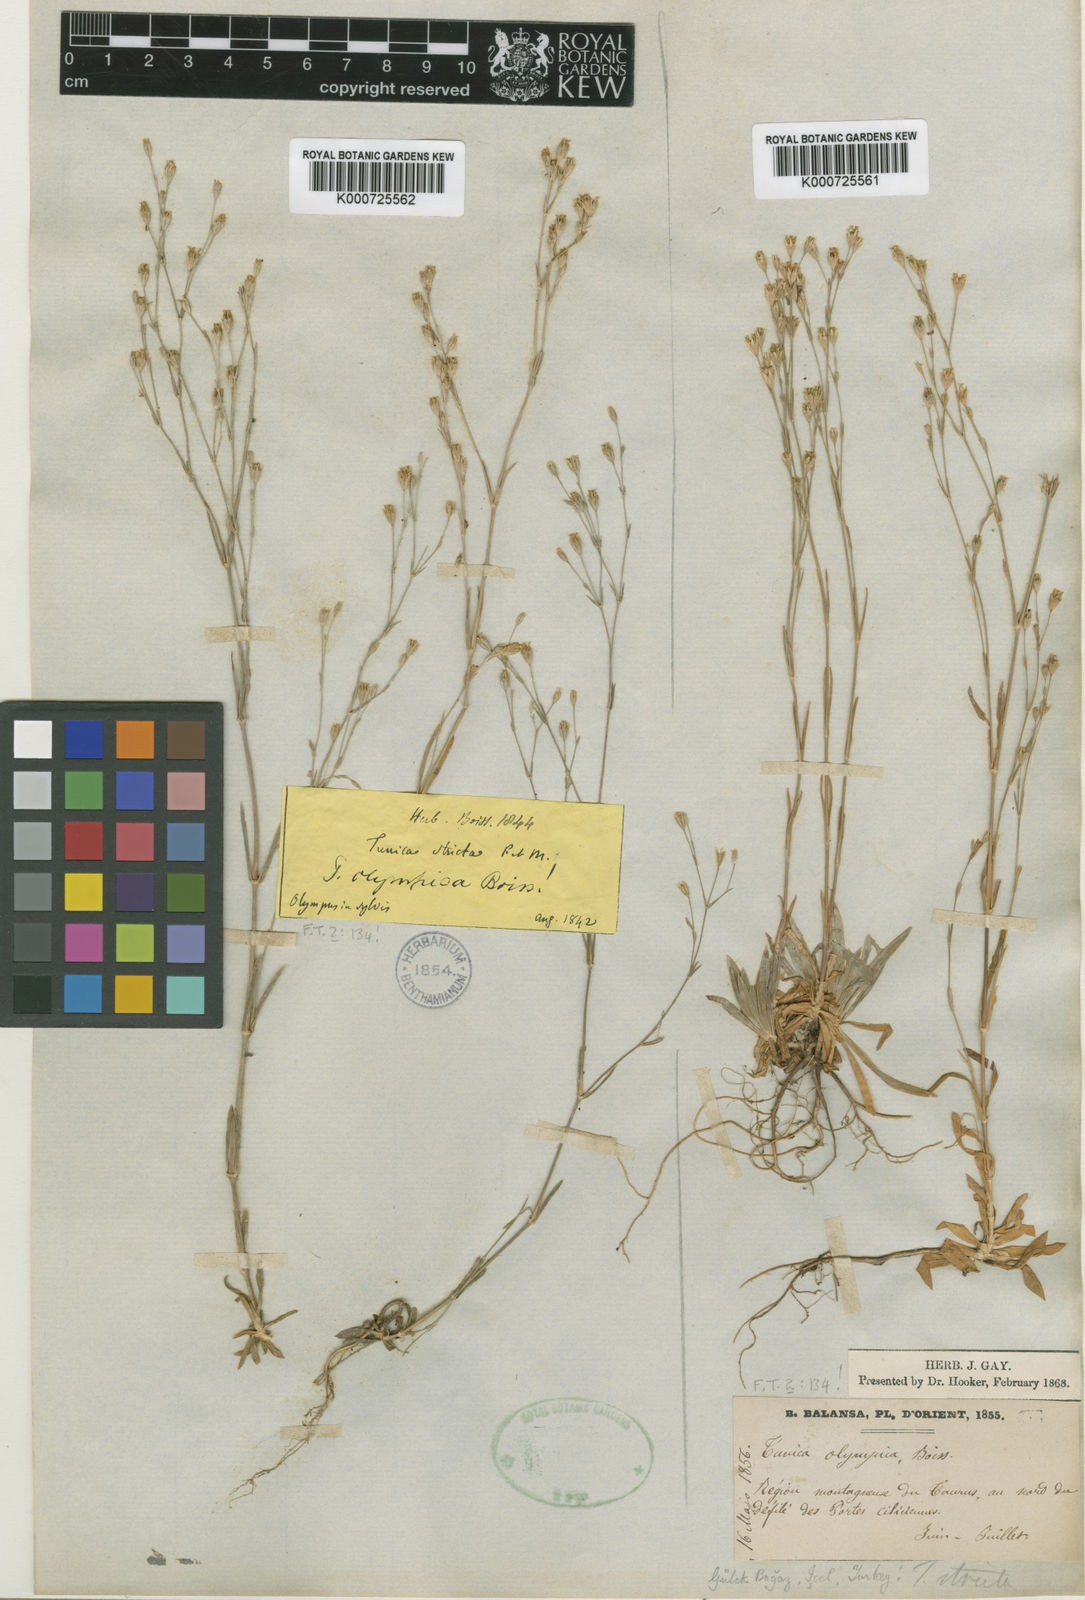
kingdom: Plantae
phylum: Tracheophyta
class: Magnoliopsida
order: Caryophyllales
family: Caryophyllaceae
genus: Petrorhagia
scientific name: Petrorhagia alpina
